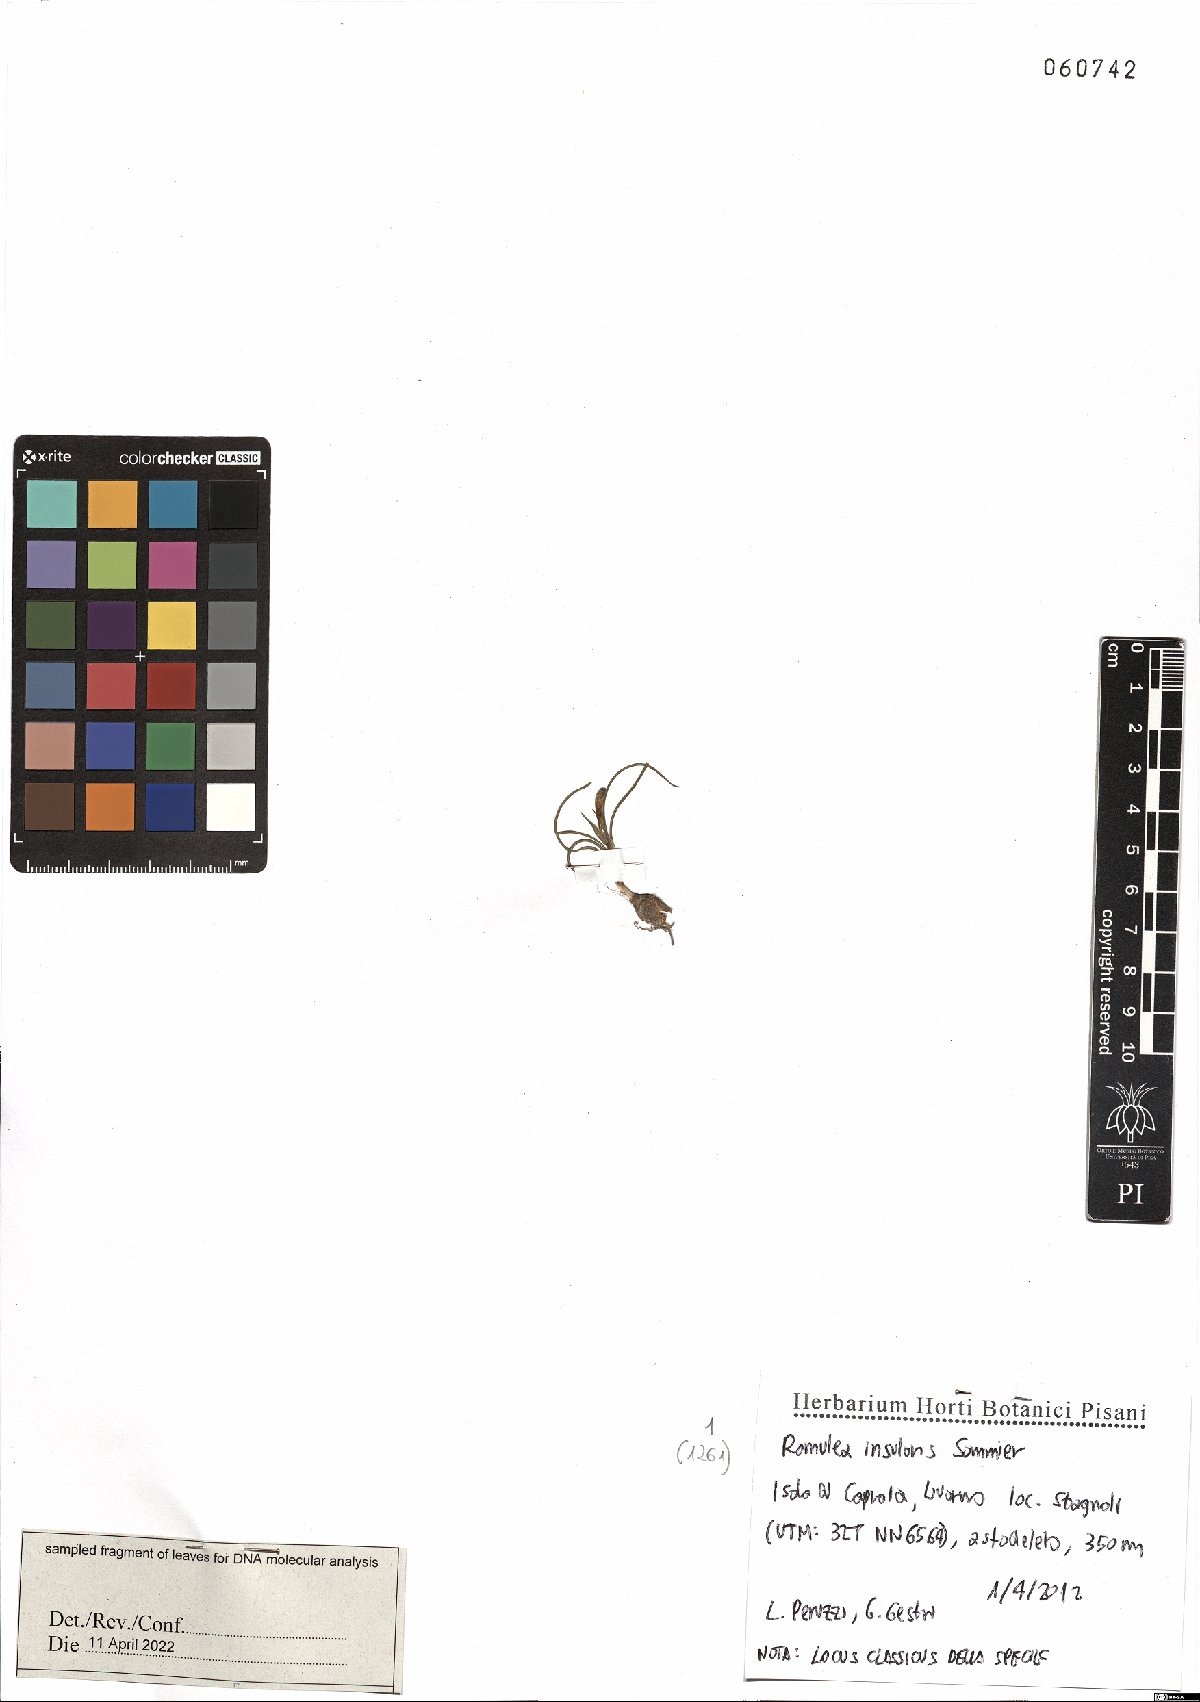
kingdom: Plantae
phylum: Tracheophyta
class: Liliopsida
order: Asparagales
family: Iridaceae
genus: Romulea
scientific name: Romulea insularis
